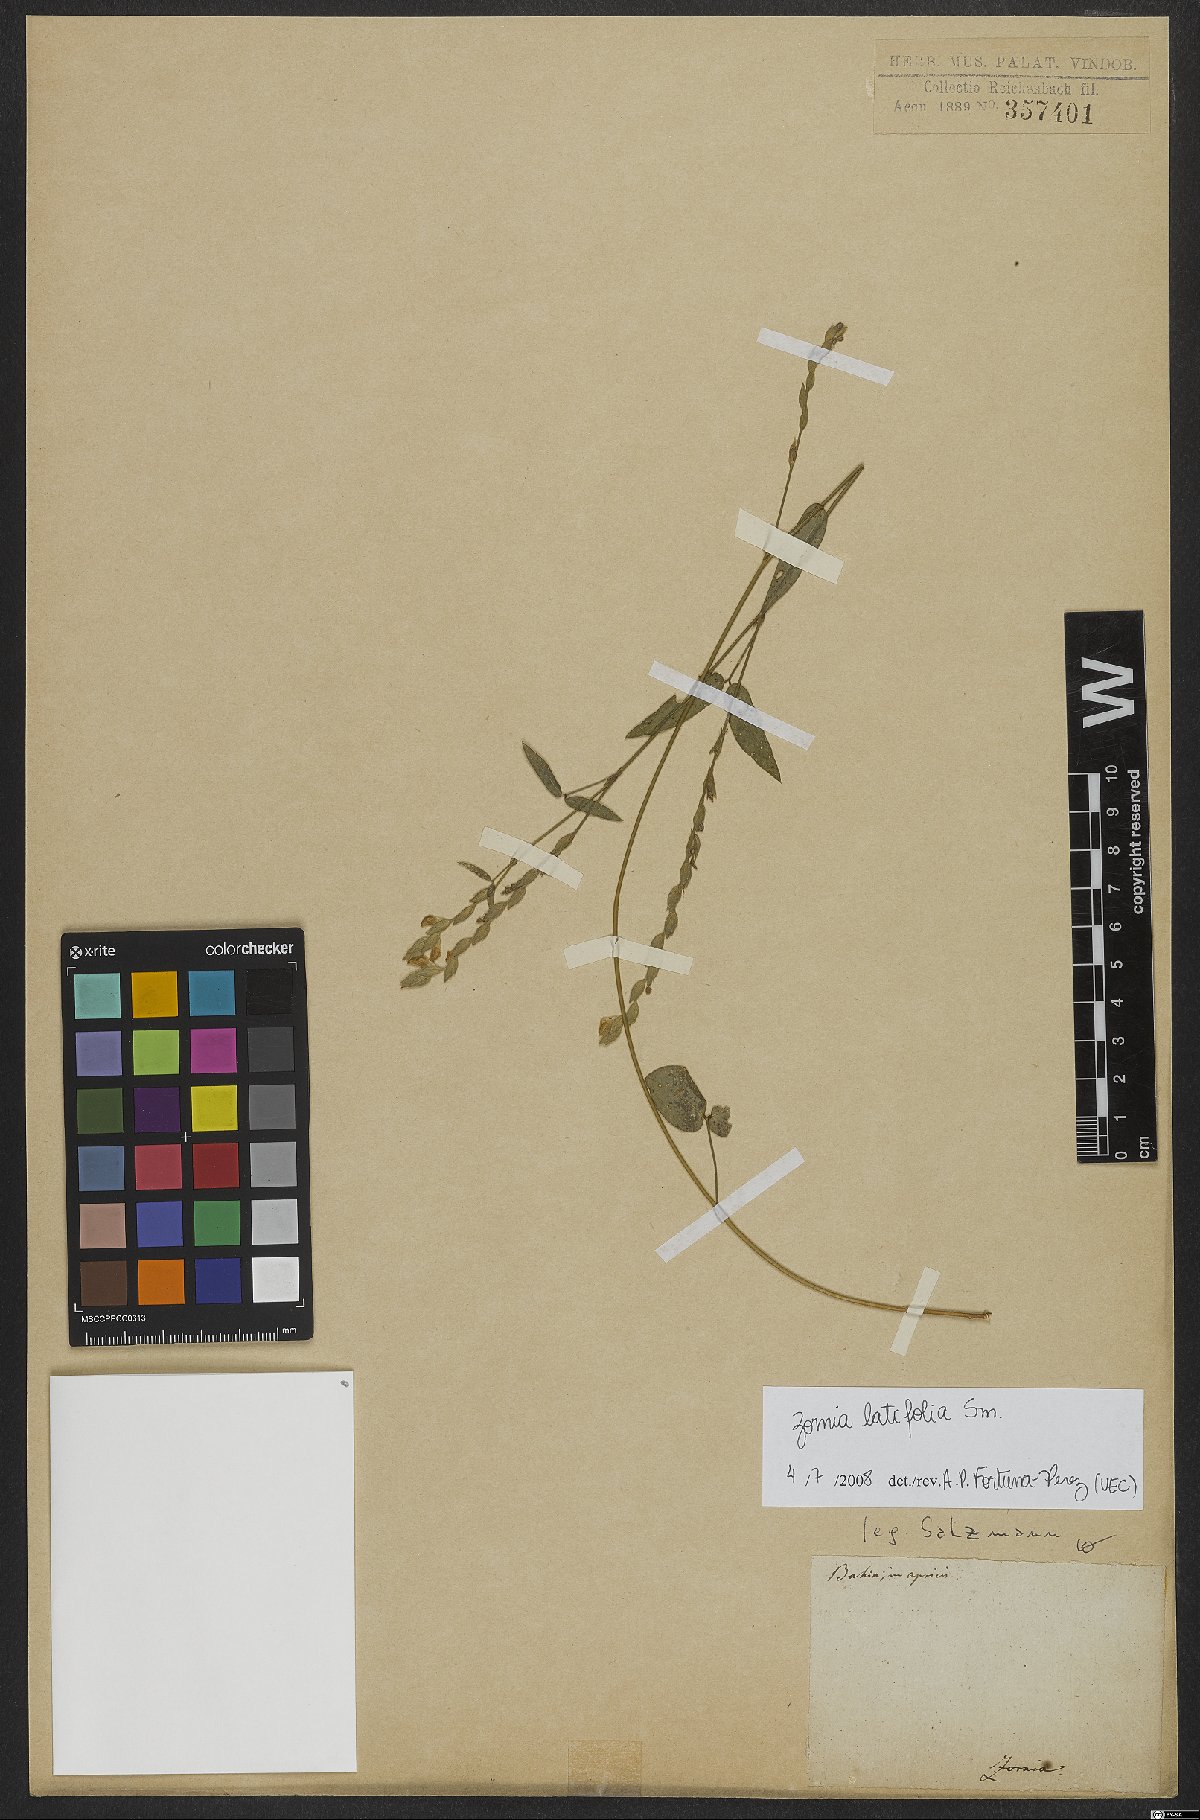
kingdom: Plantae
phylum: Tracheophyta
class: Magnoliopsida
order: Fabales
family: Fabaceae
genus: Zornia
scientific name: Zornia sericea
